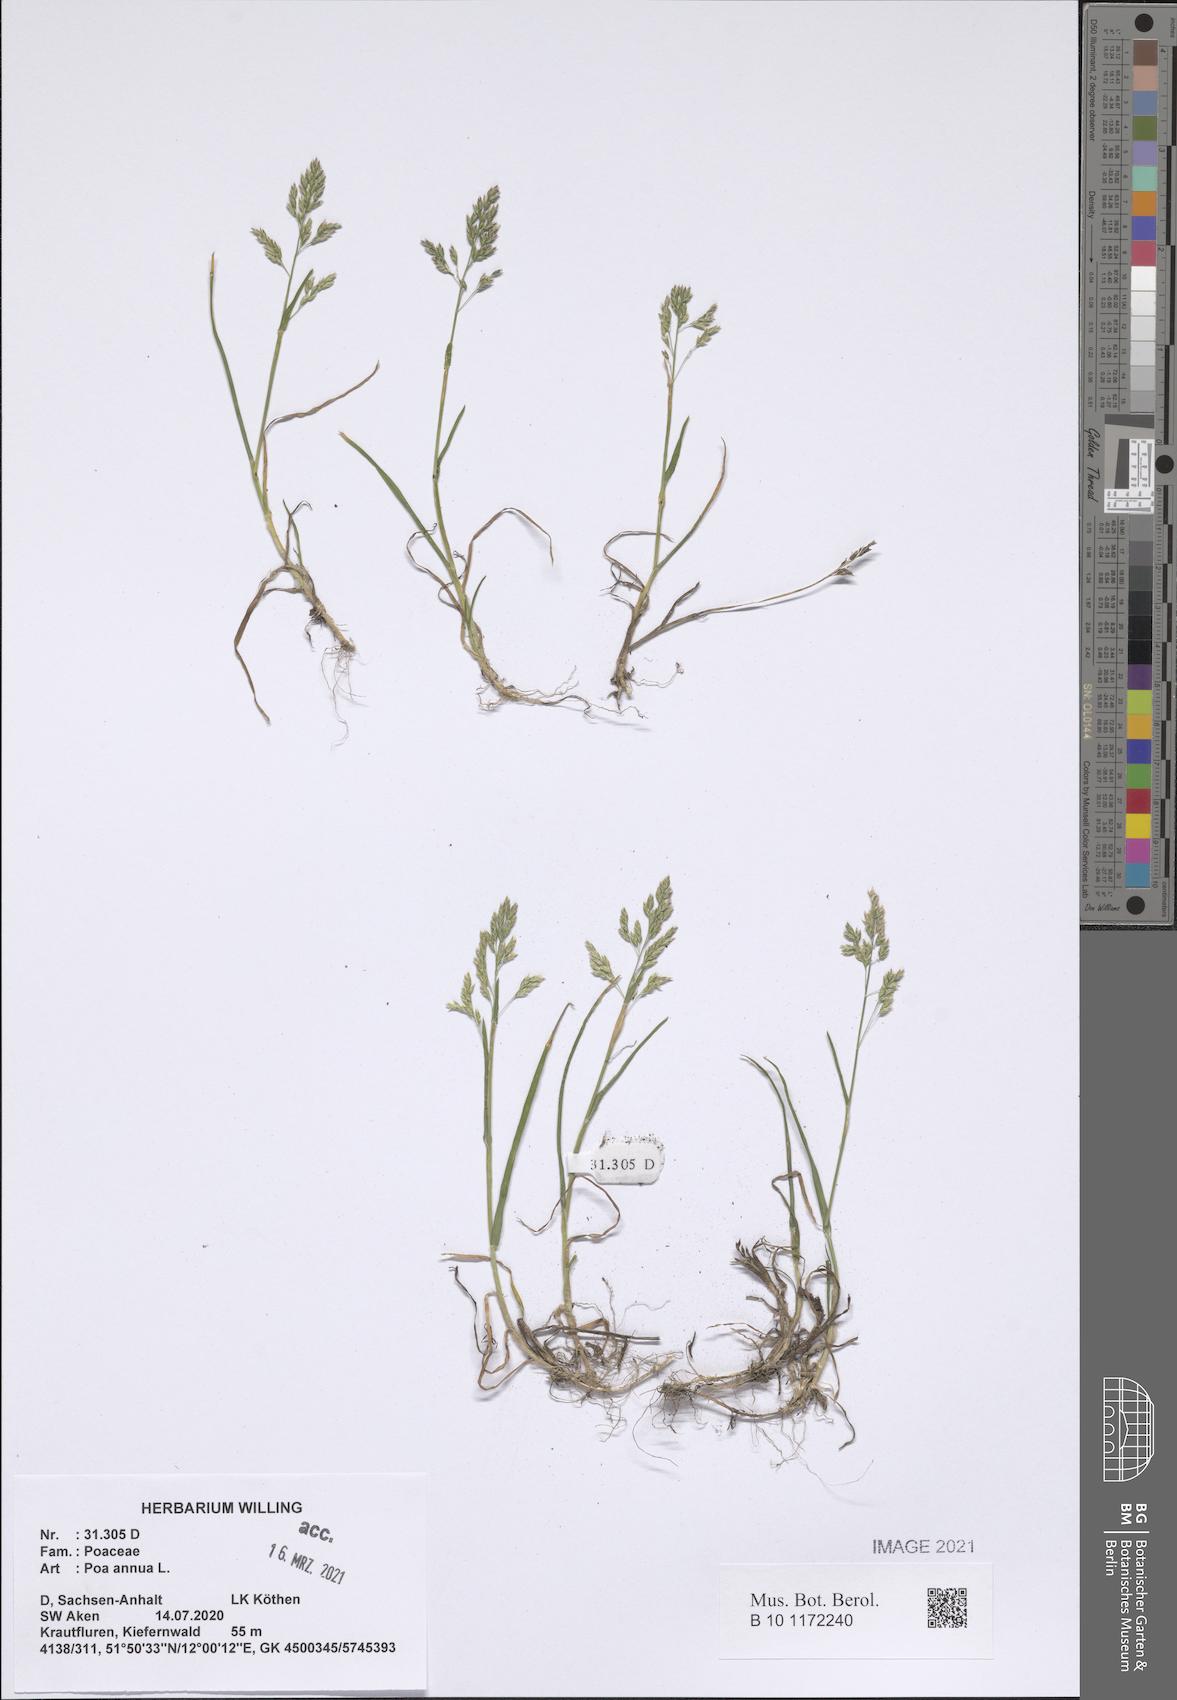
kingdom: Plantae
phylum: Tracheophyta
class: Liliopsida
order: Poales
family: Poaceae
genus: Poa
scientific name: Poa annua
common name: Annual bluegrass
